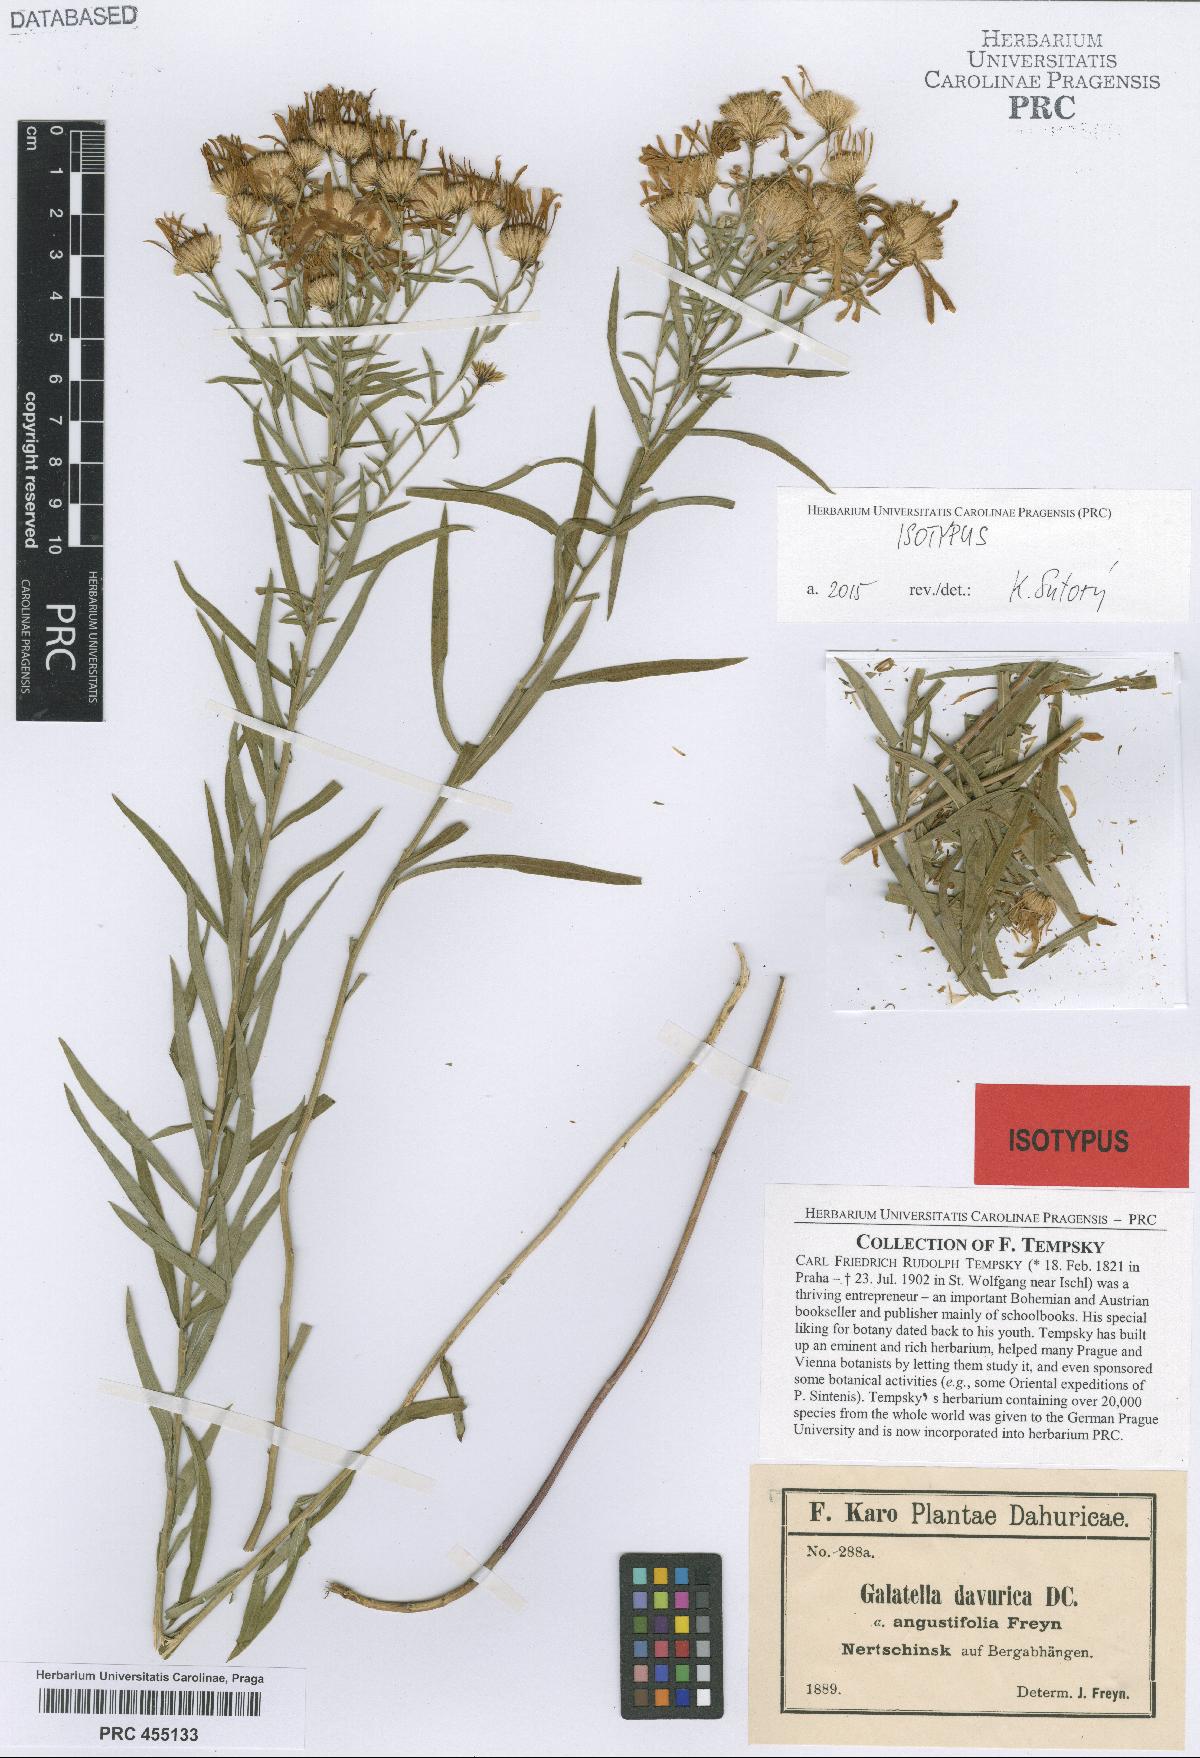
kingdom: Plantae
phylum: Tracheophyta
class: Magnoliopsida
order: Asterales
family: Asteraceae
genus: Galatella
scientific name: Galatella dahurica
